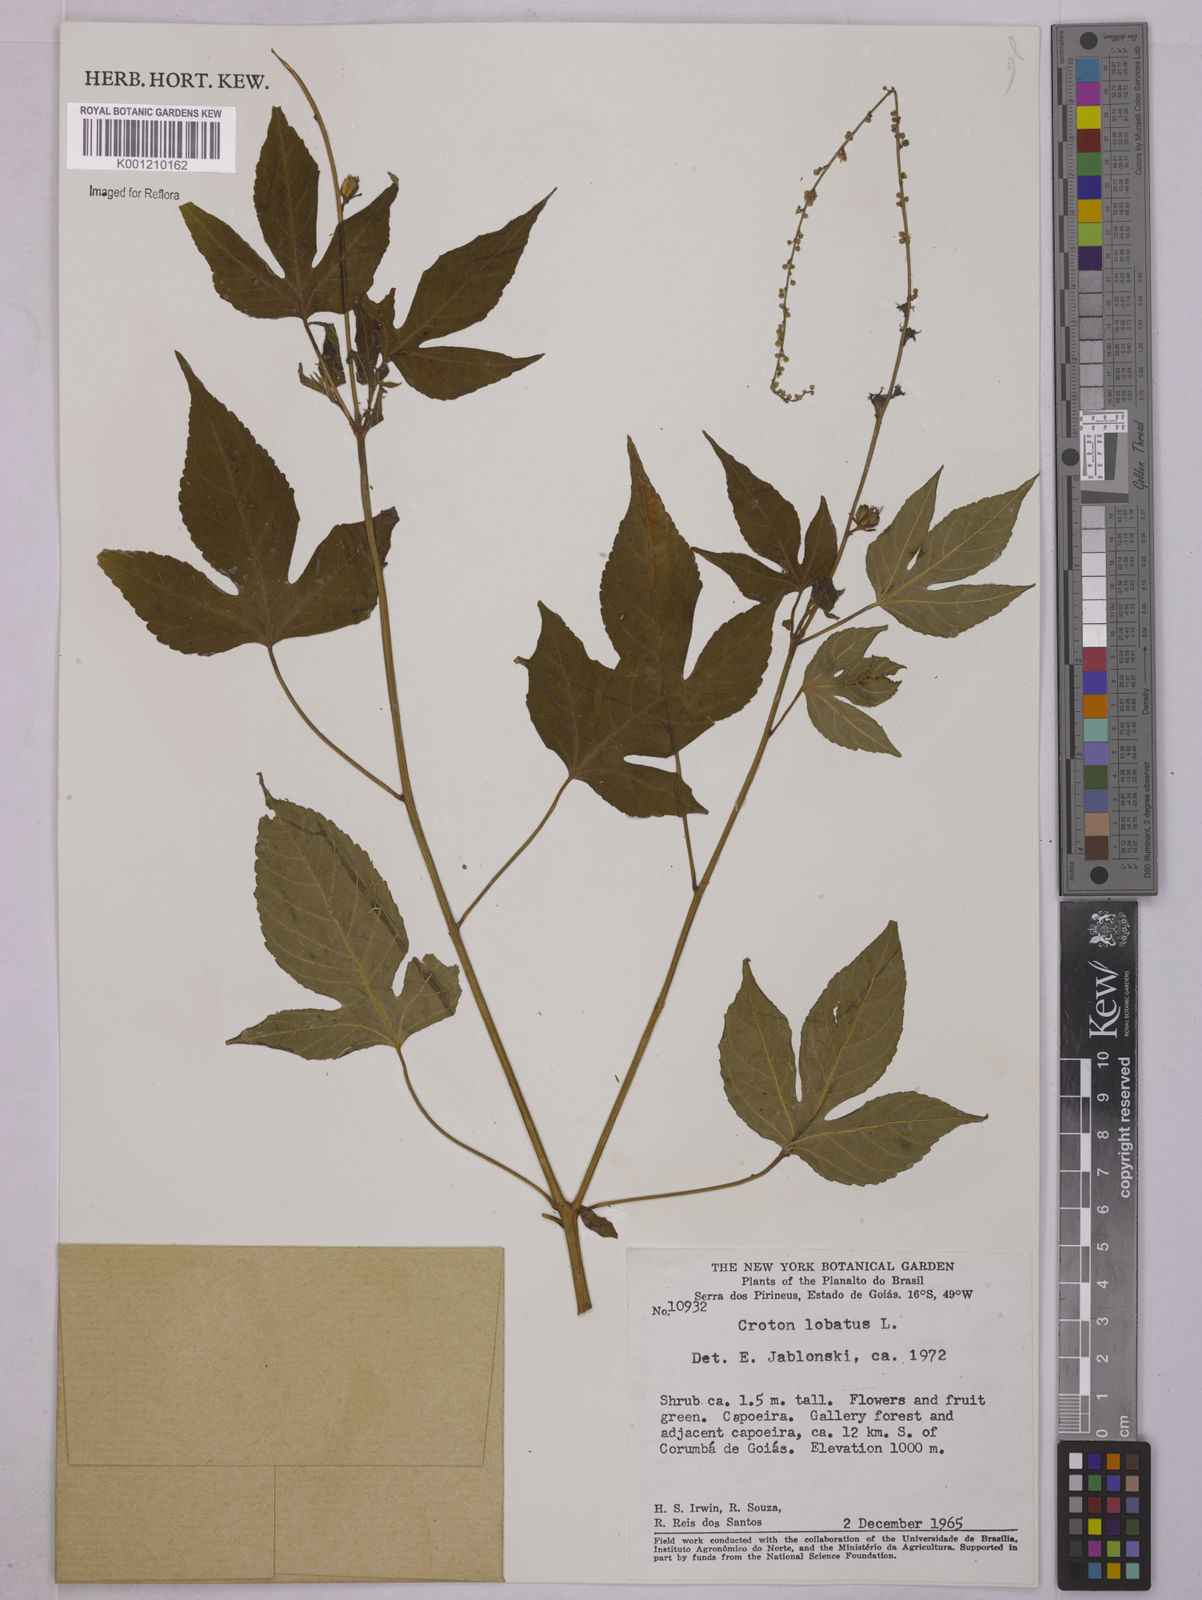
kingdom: Plantae
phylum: Tracheophyta
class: Magnoliopsida
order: Malpighiales
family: Euphorbiaceae
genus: Astraea
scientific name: Astraea lobata
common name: Lobed croton
